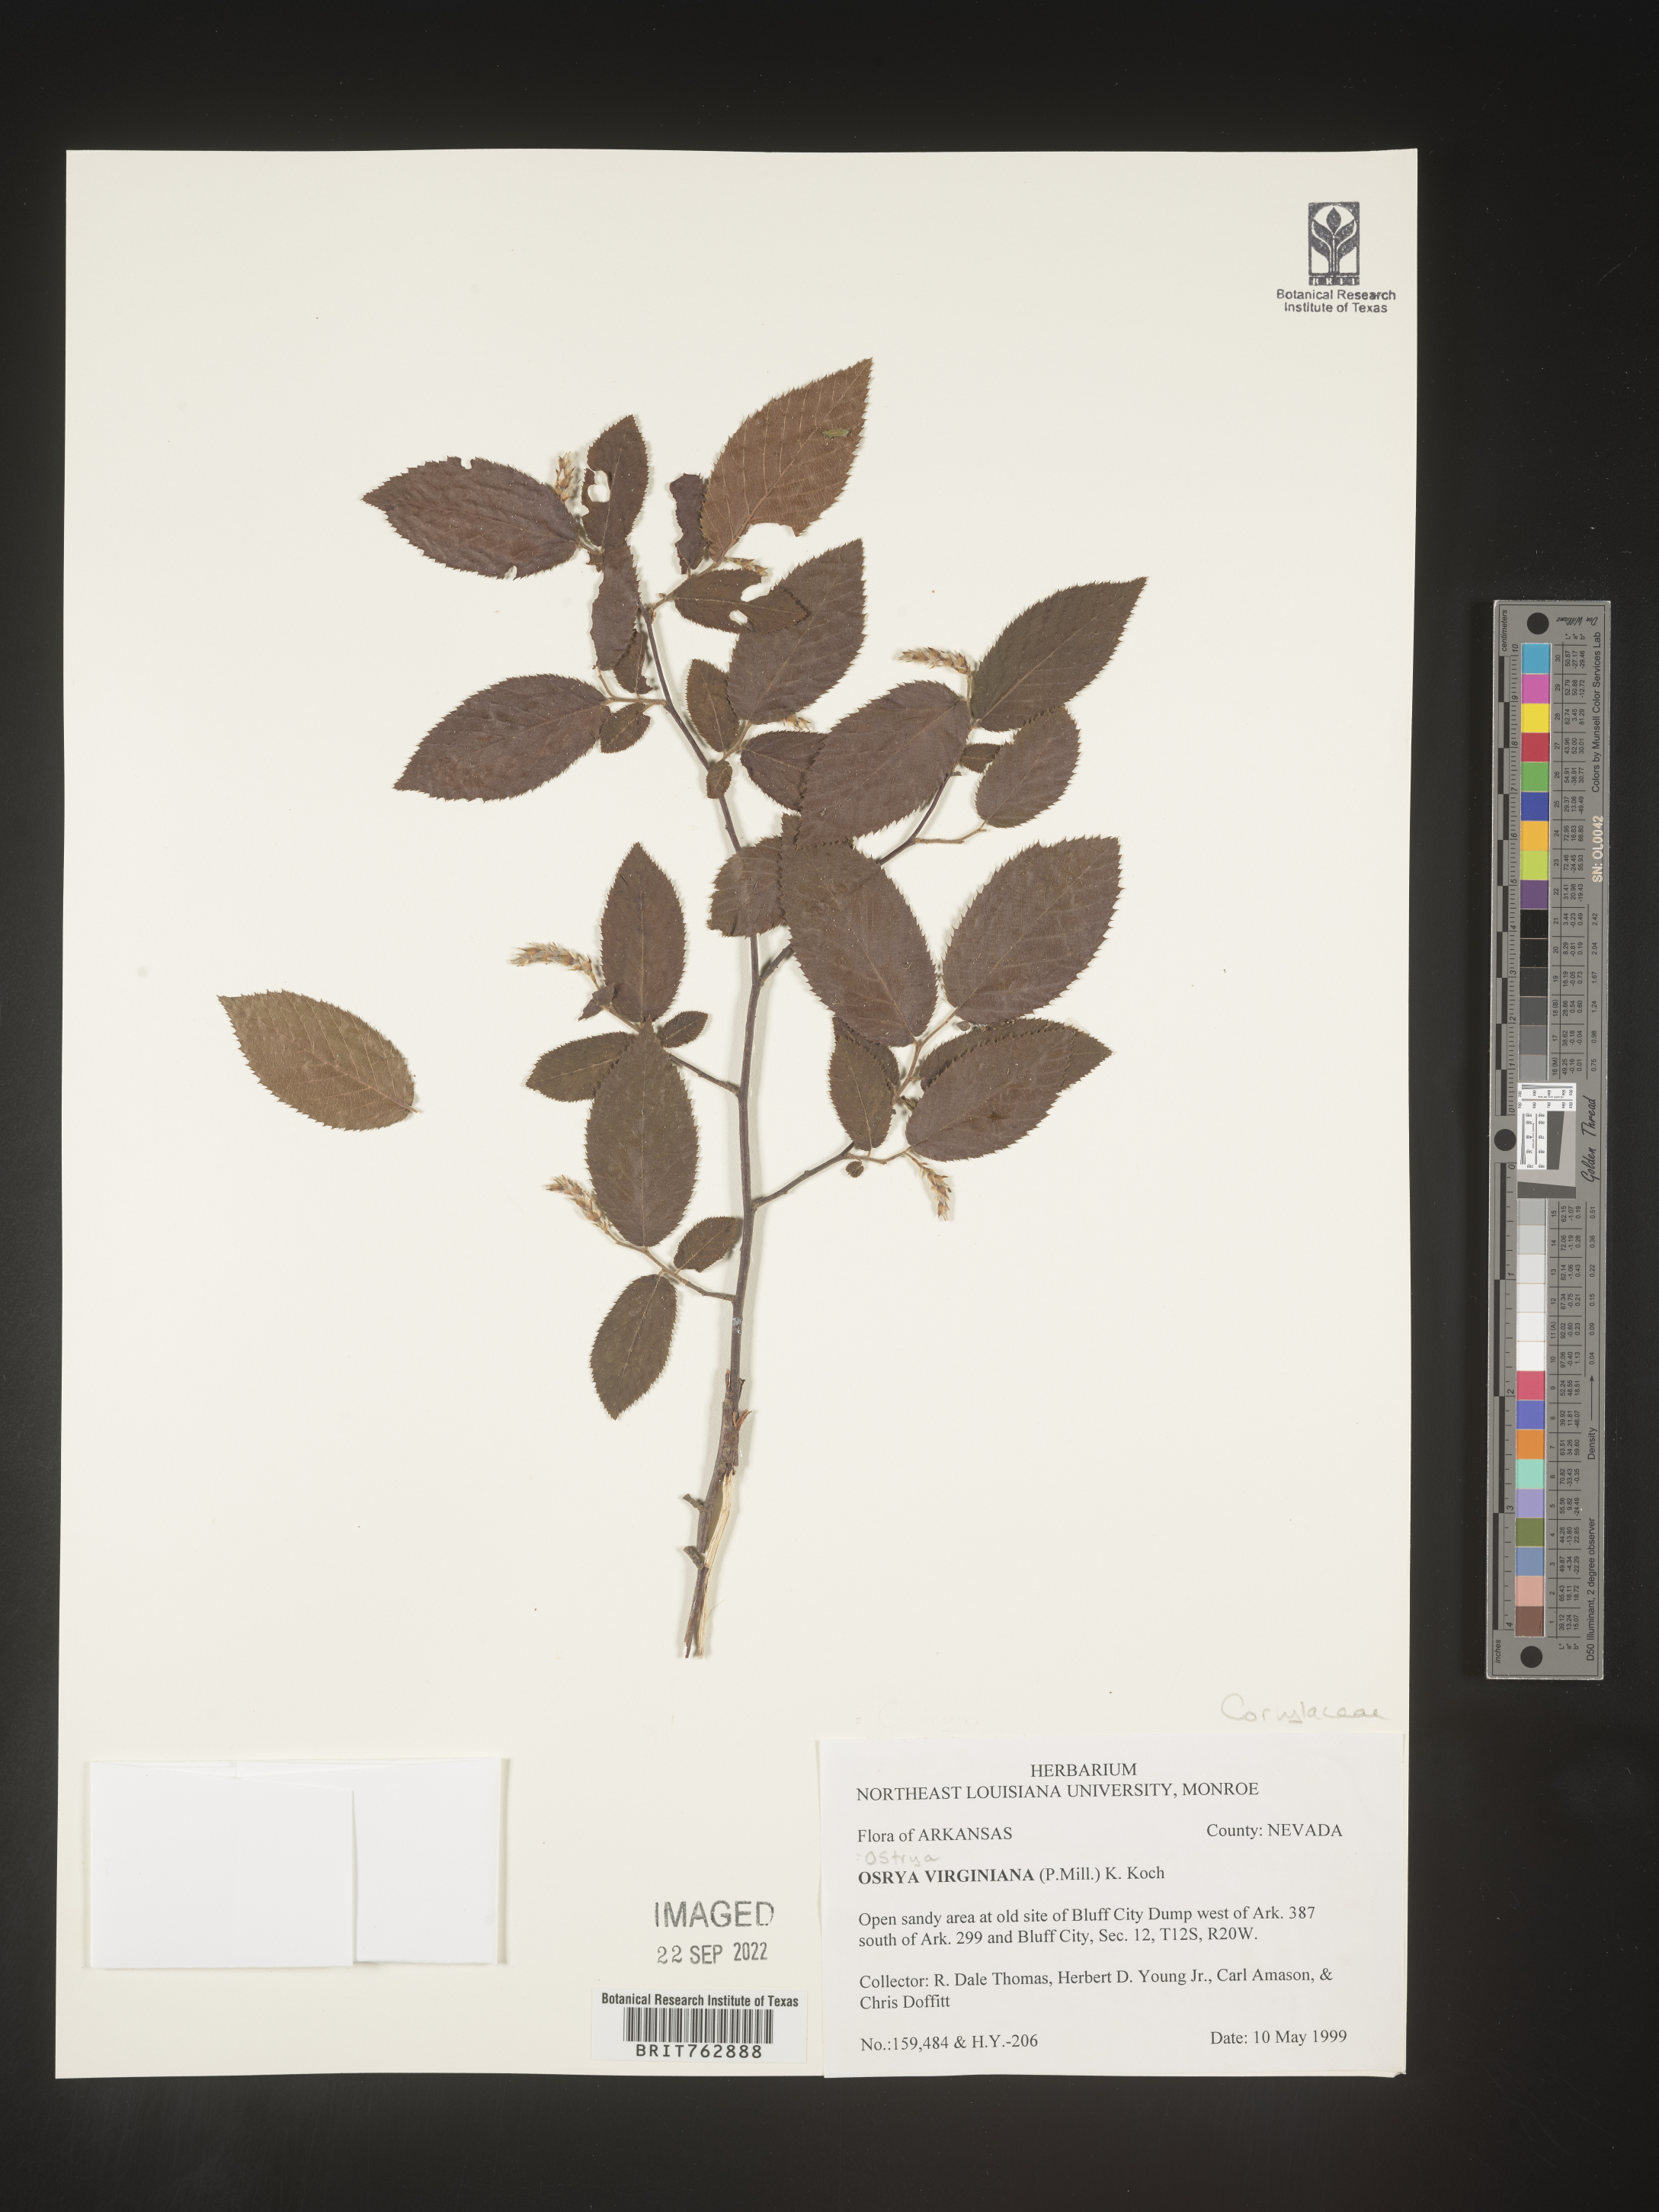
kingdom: Plantae
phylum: Tracheophyta
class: Magnoliopsida
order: Fagales
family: Betulaceae
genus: Ostrya
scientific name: Ostrya virginiana
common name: Ironwood
